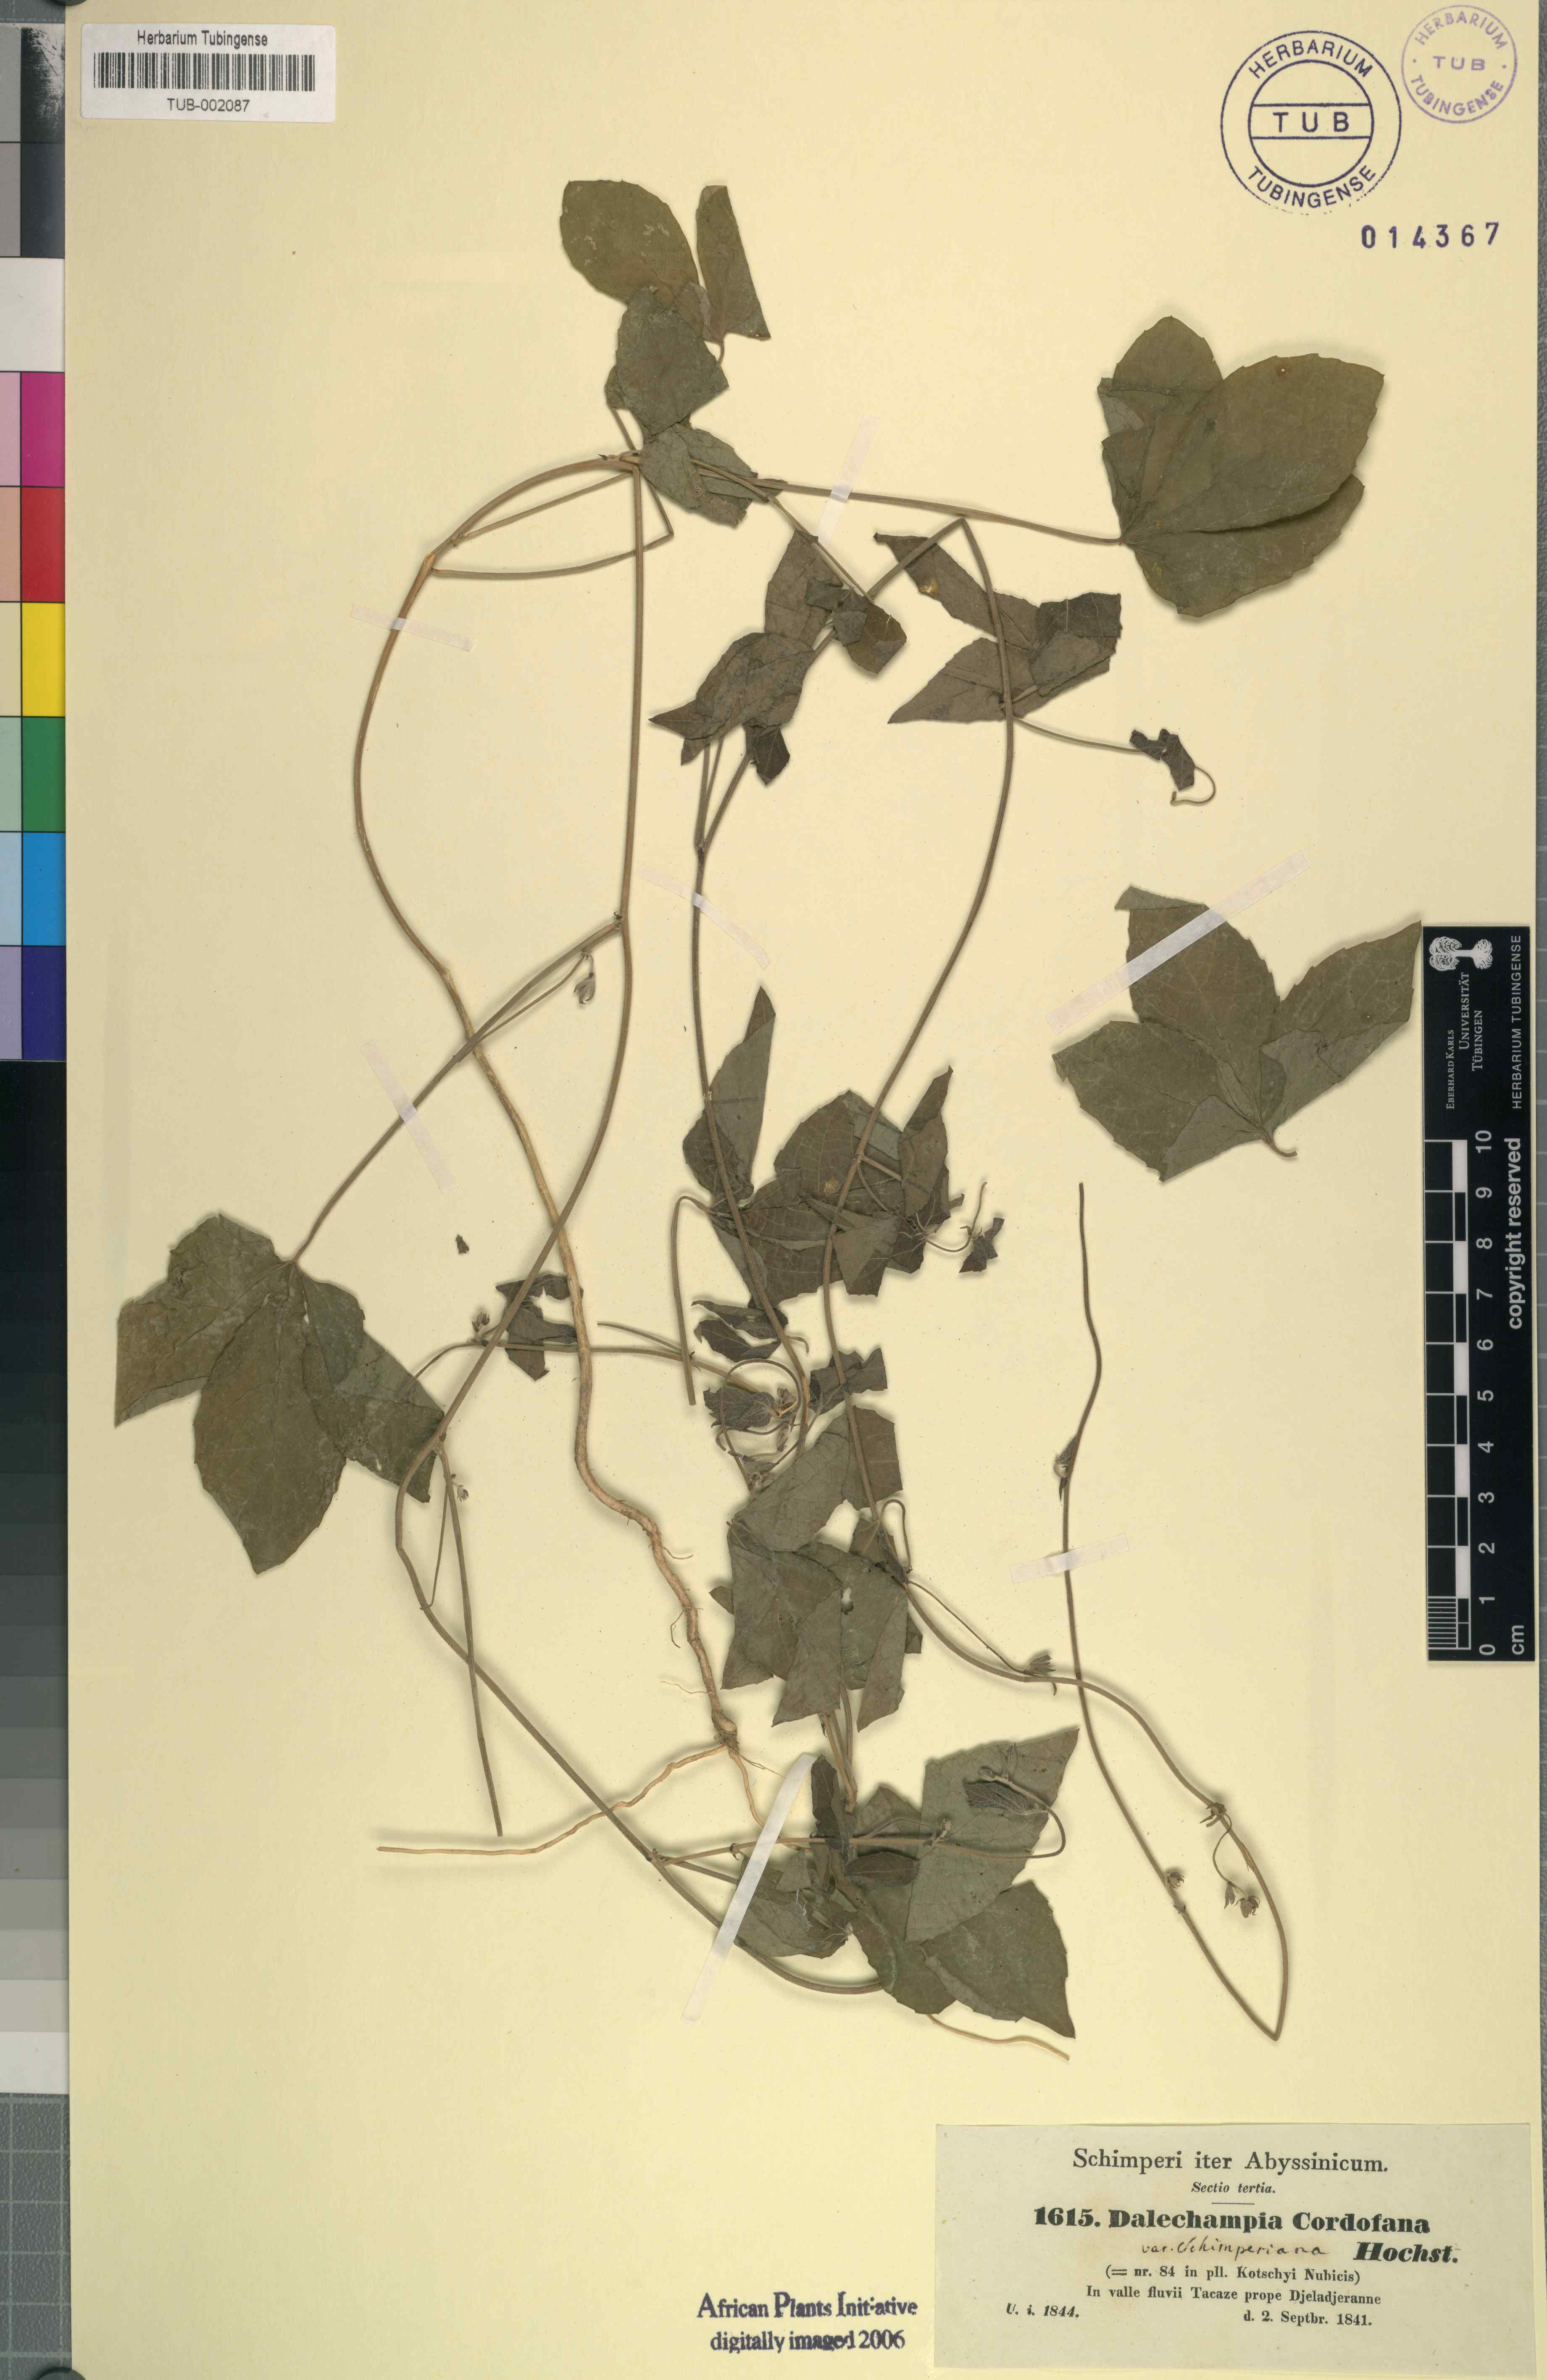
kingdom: Plantae
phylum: Tracheophyta
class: Magnoliopsida
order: Malpighiales
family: Euphorbiaceae
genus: Dalechampia
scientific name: Dalechampia scandens
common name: Spurgecreeper
